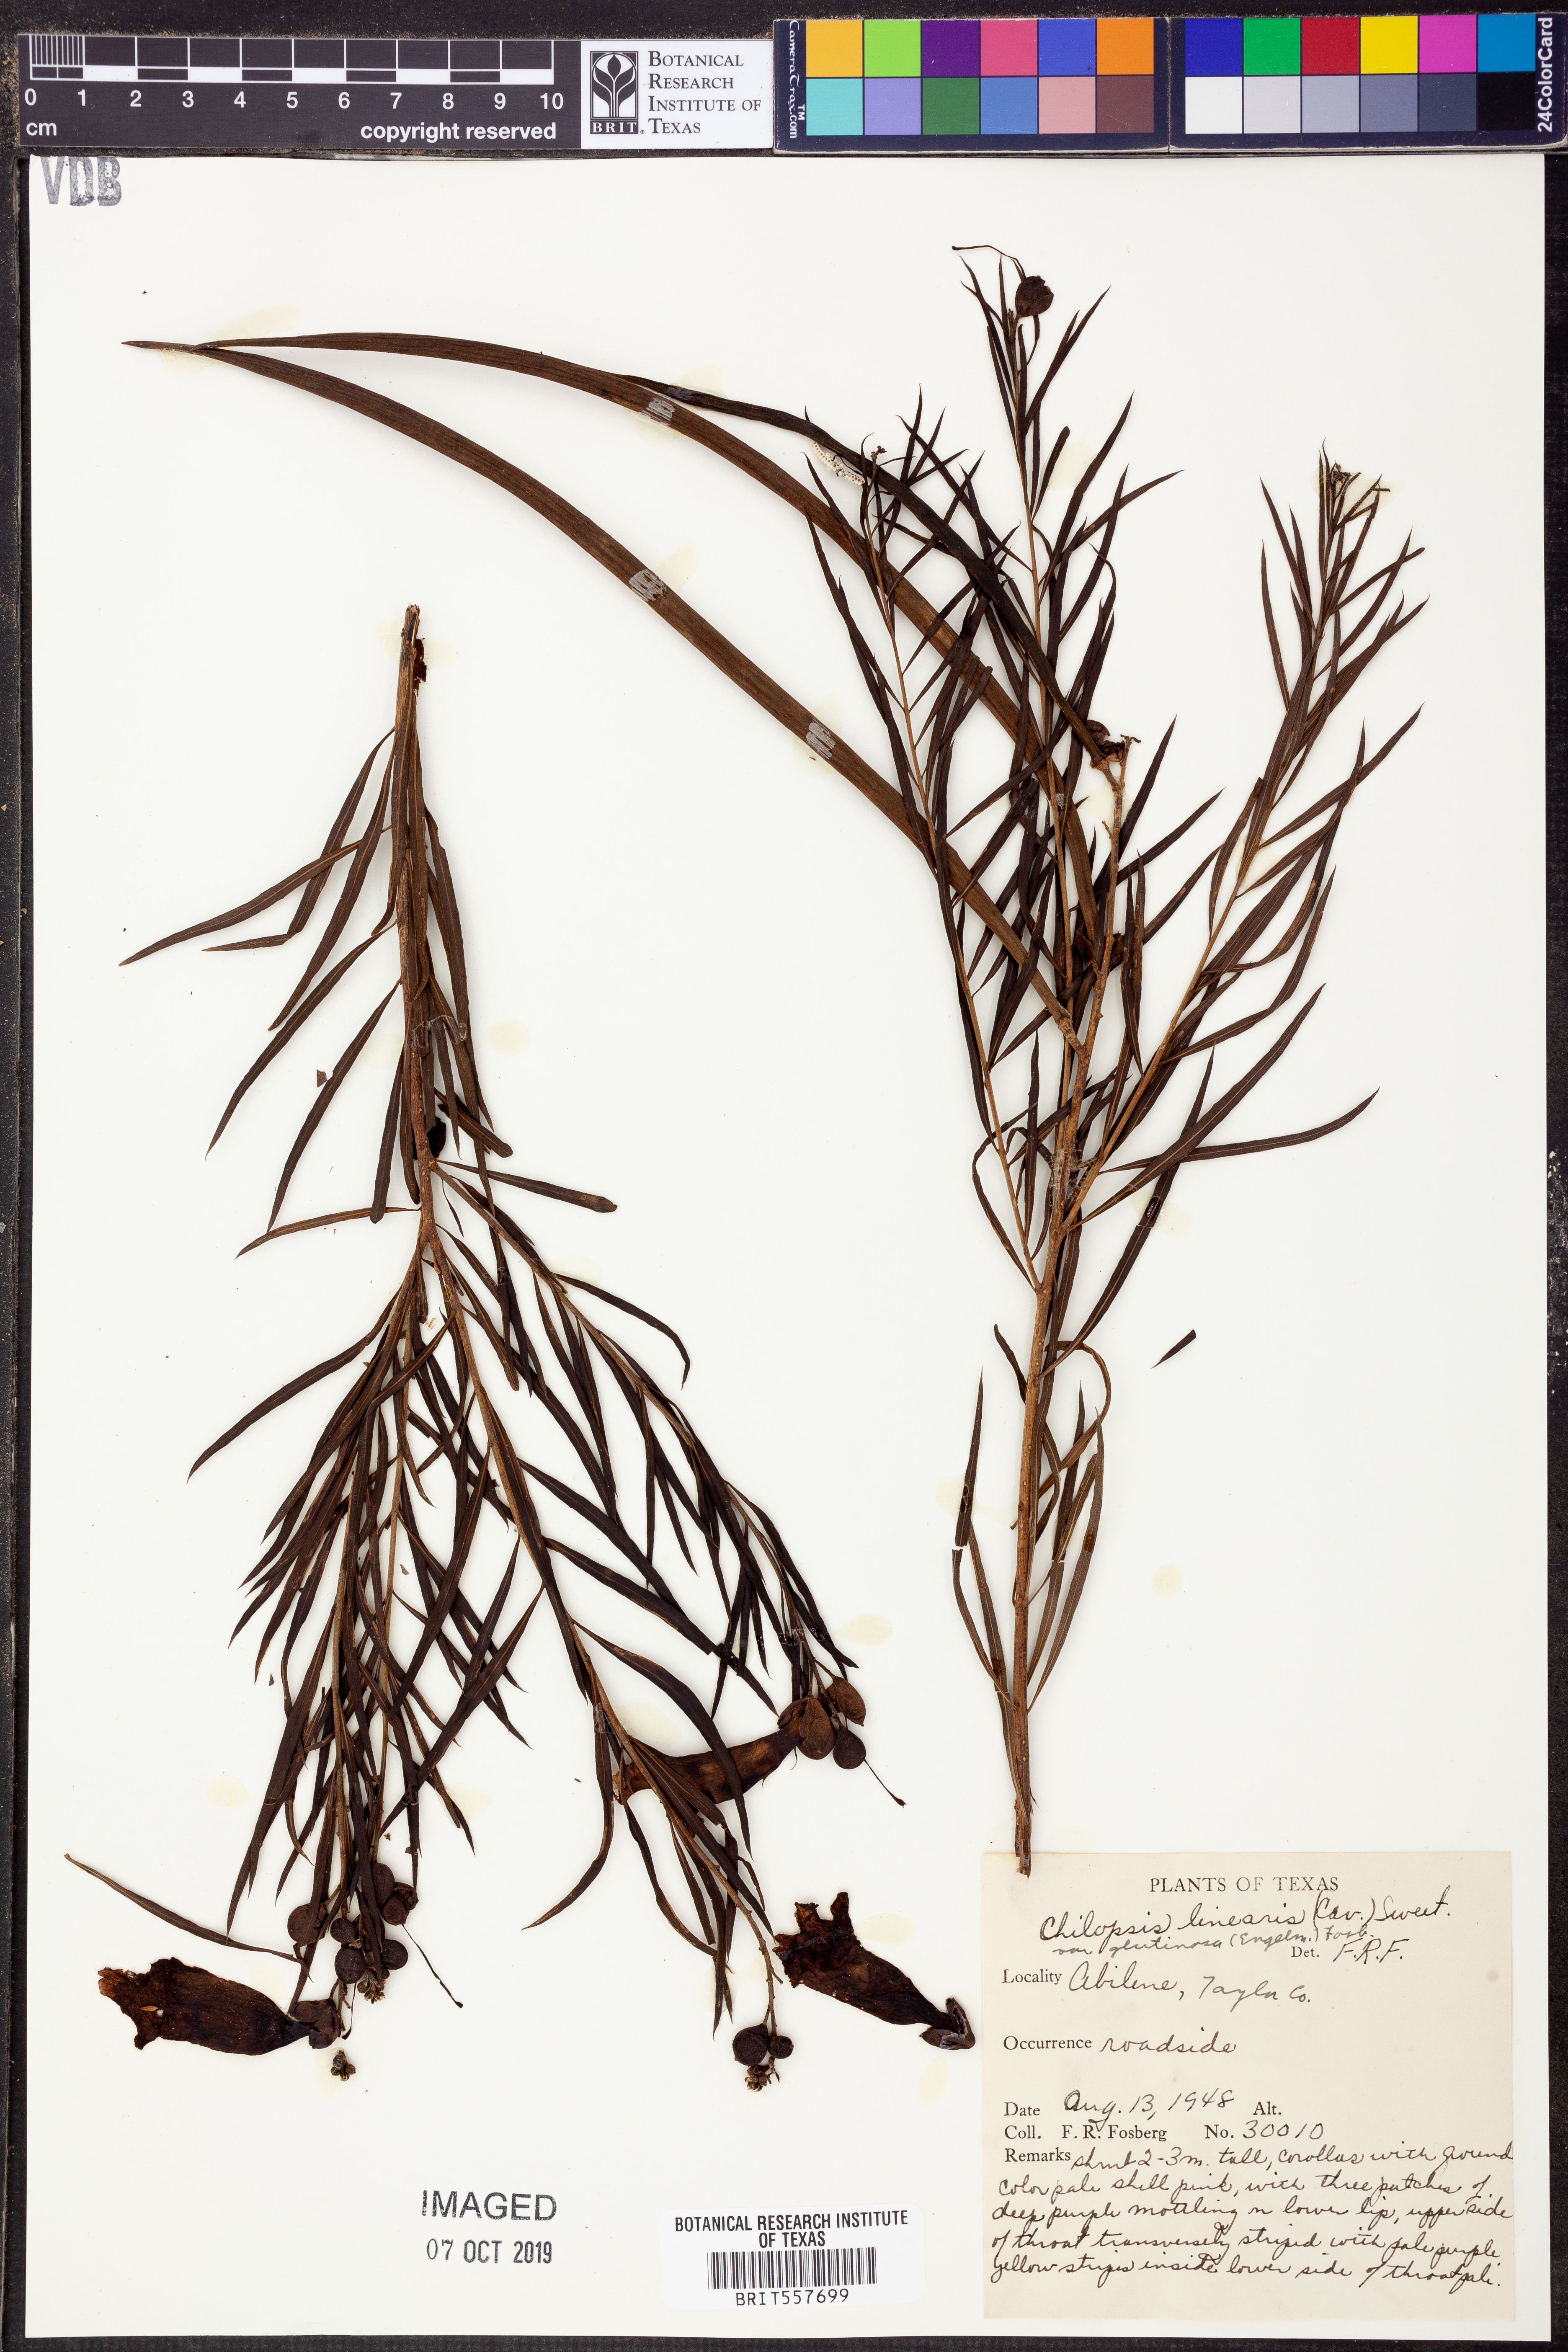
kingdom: Plantae
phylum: Tracheophyta
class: Magnoliopsida
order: Lamiales
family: Bignoniaceae
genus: Chilopsis
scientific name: Chilopsis linearis
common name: Desert-willow
